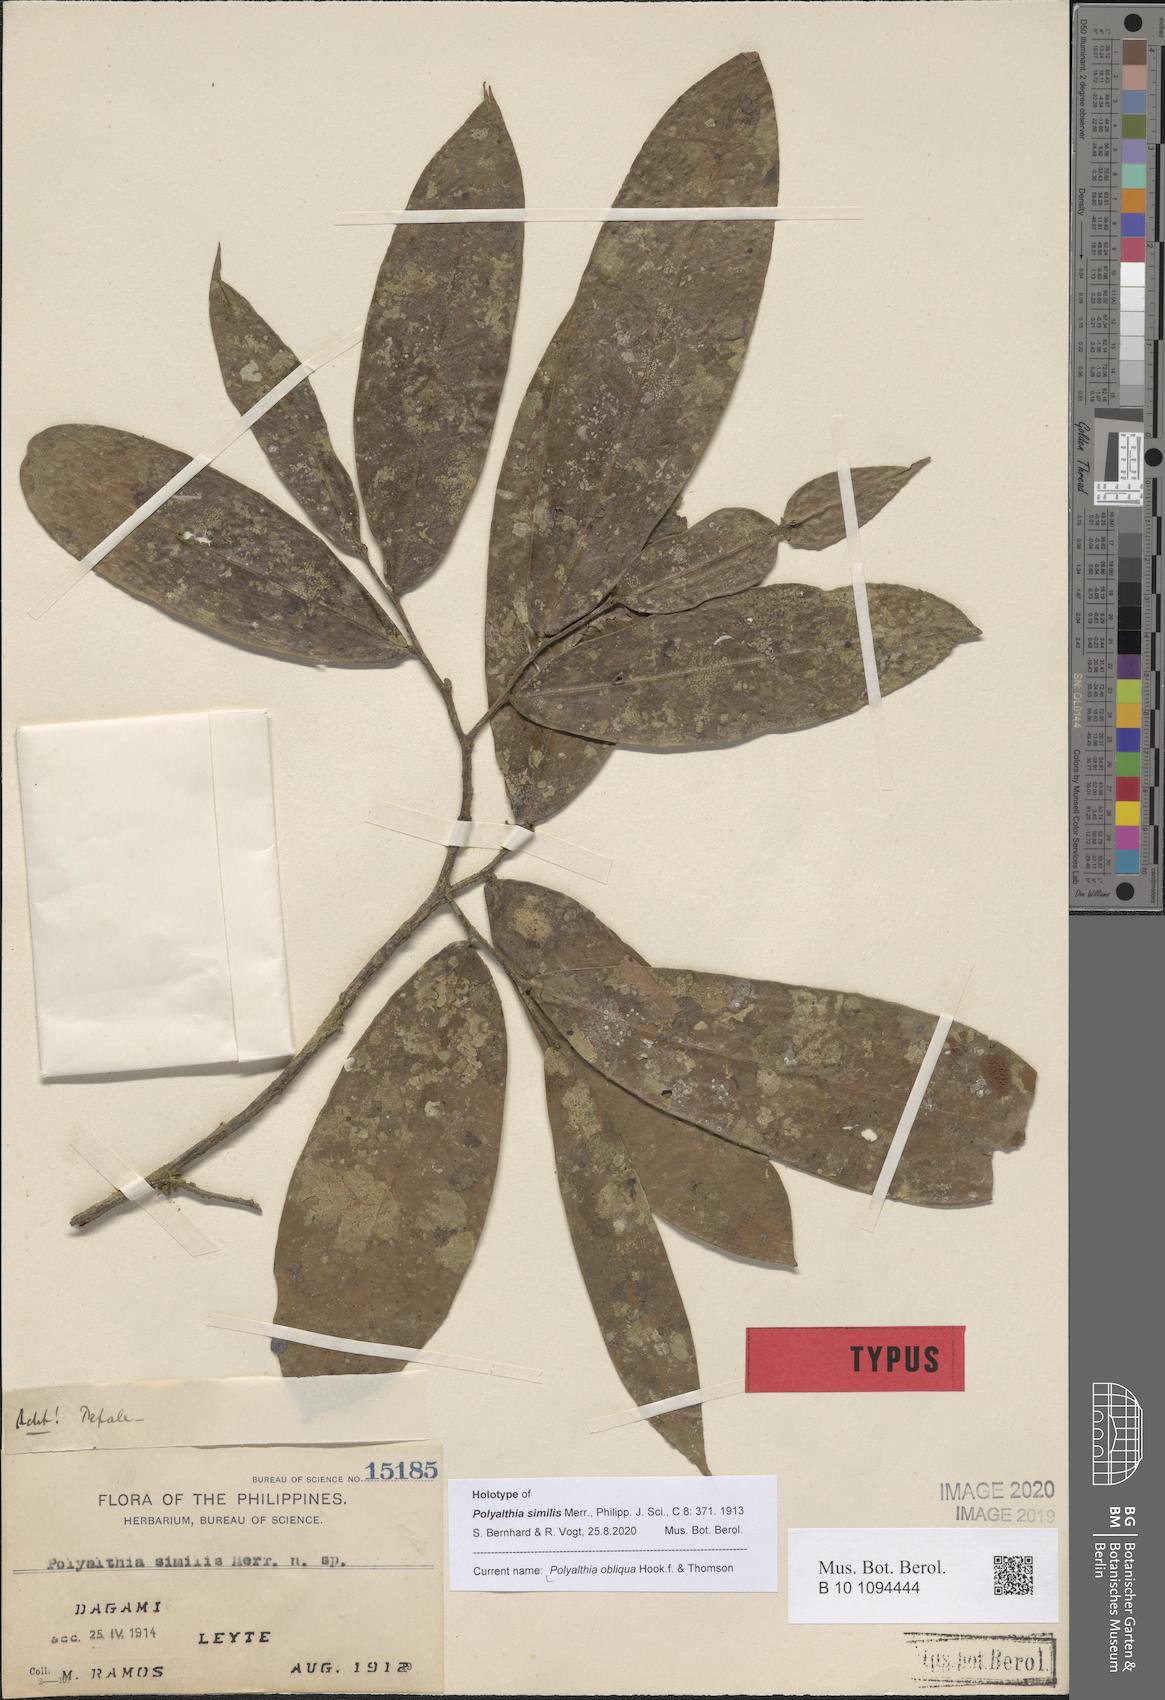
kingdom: Plantae
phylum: Tracheophyta
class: Magnoliopsida
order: Magnoliales
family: Annonaceae
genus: Polyalthia
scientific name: Polyalthia obliqua
